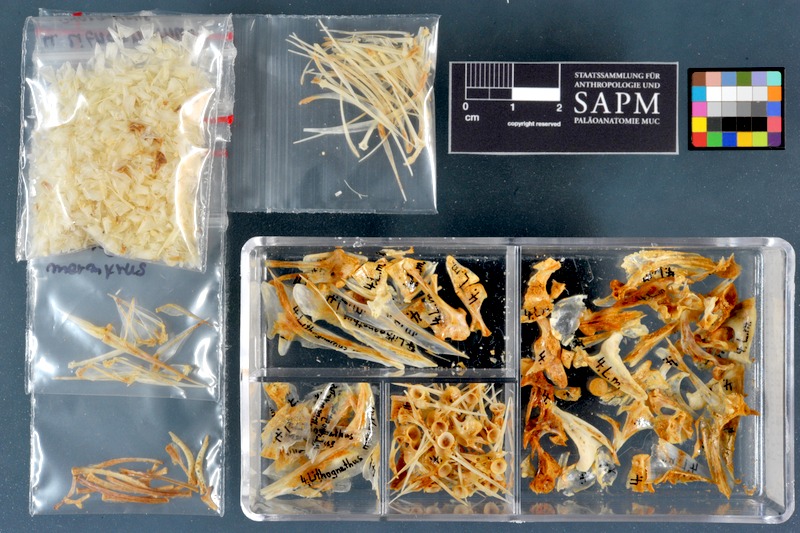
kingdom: Animalia
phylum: Chordata
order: Perciformes
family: Sparidae
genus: Lithognathus
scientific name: Lithognathus mormyrus
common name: Sand steenbras
